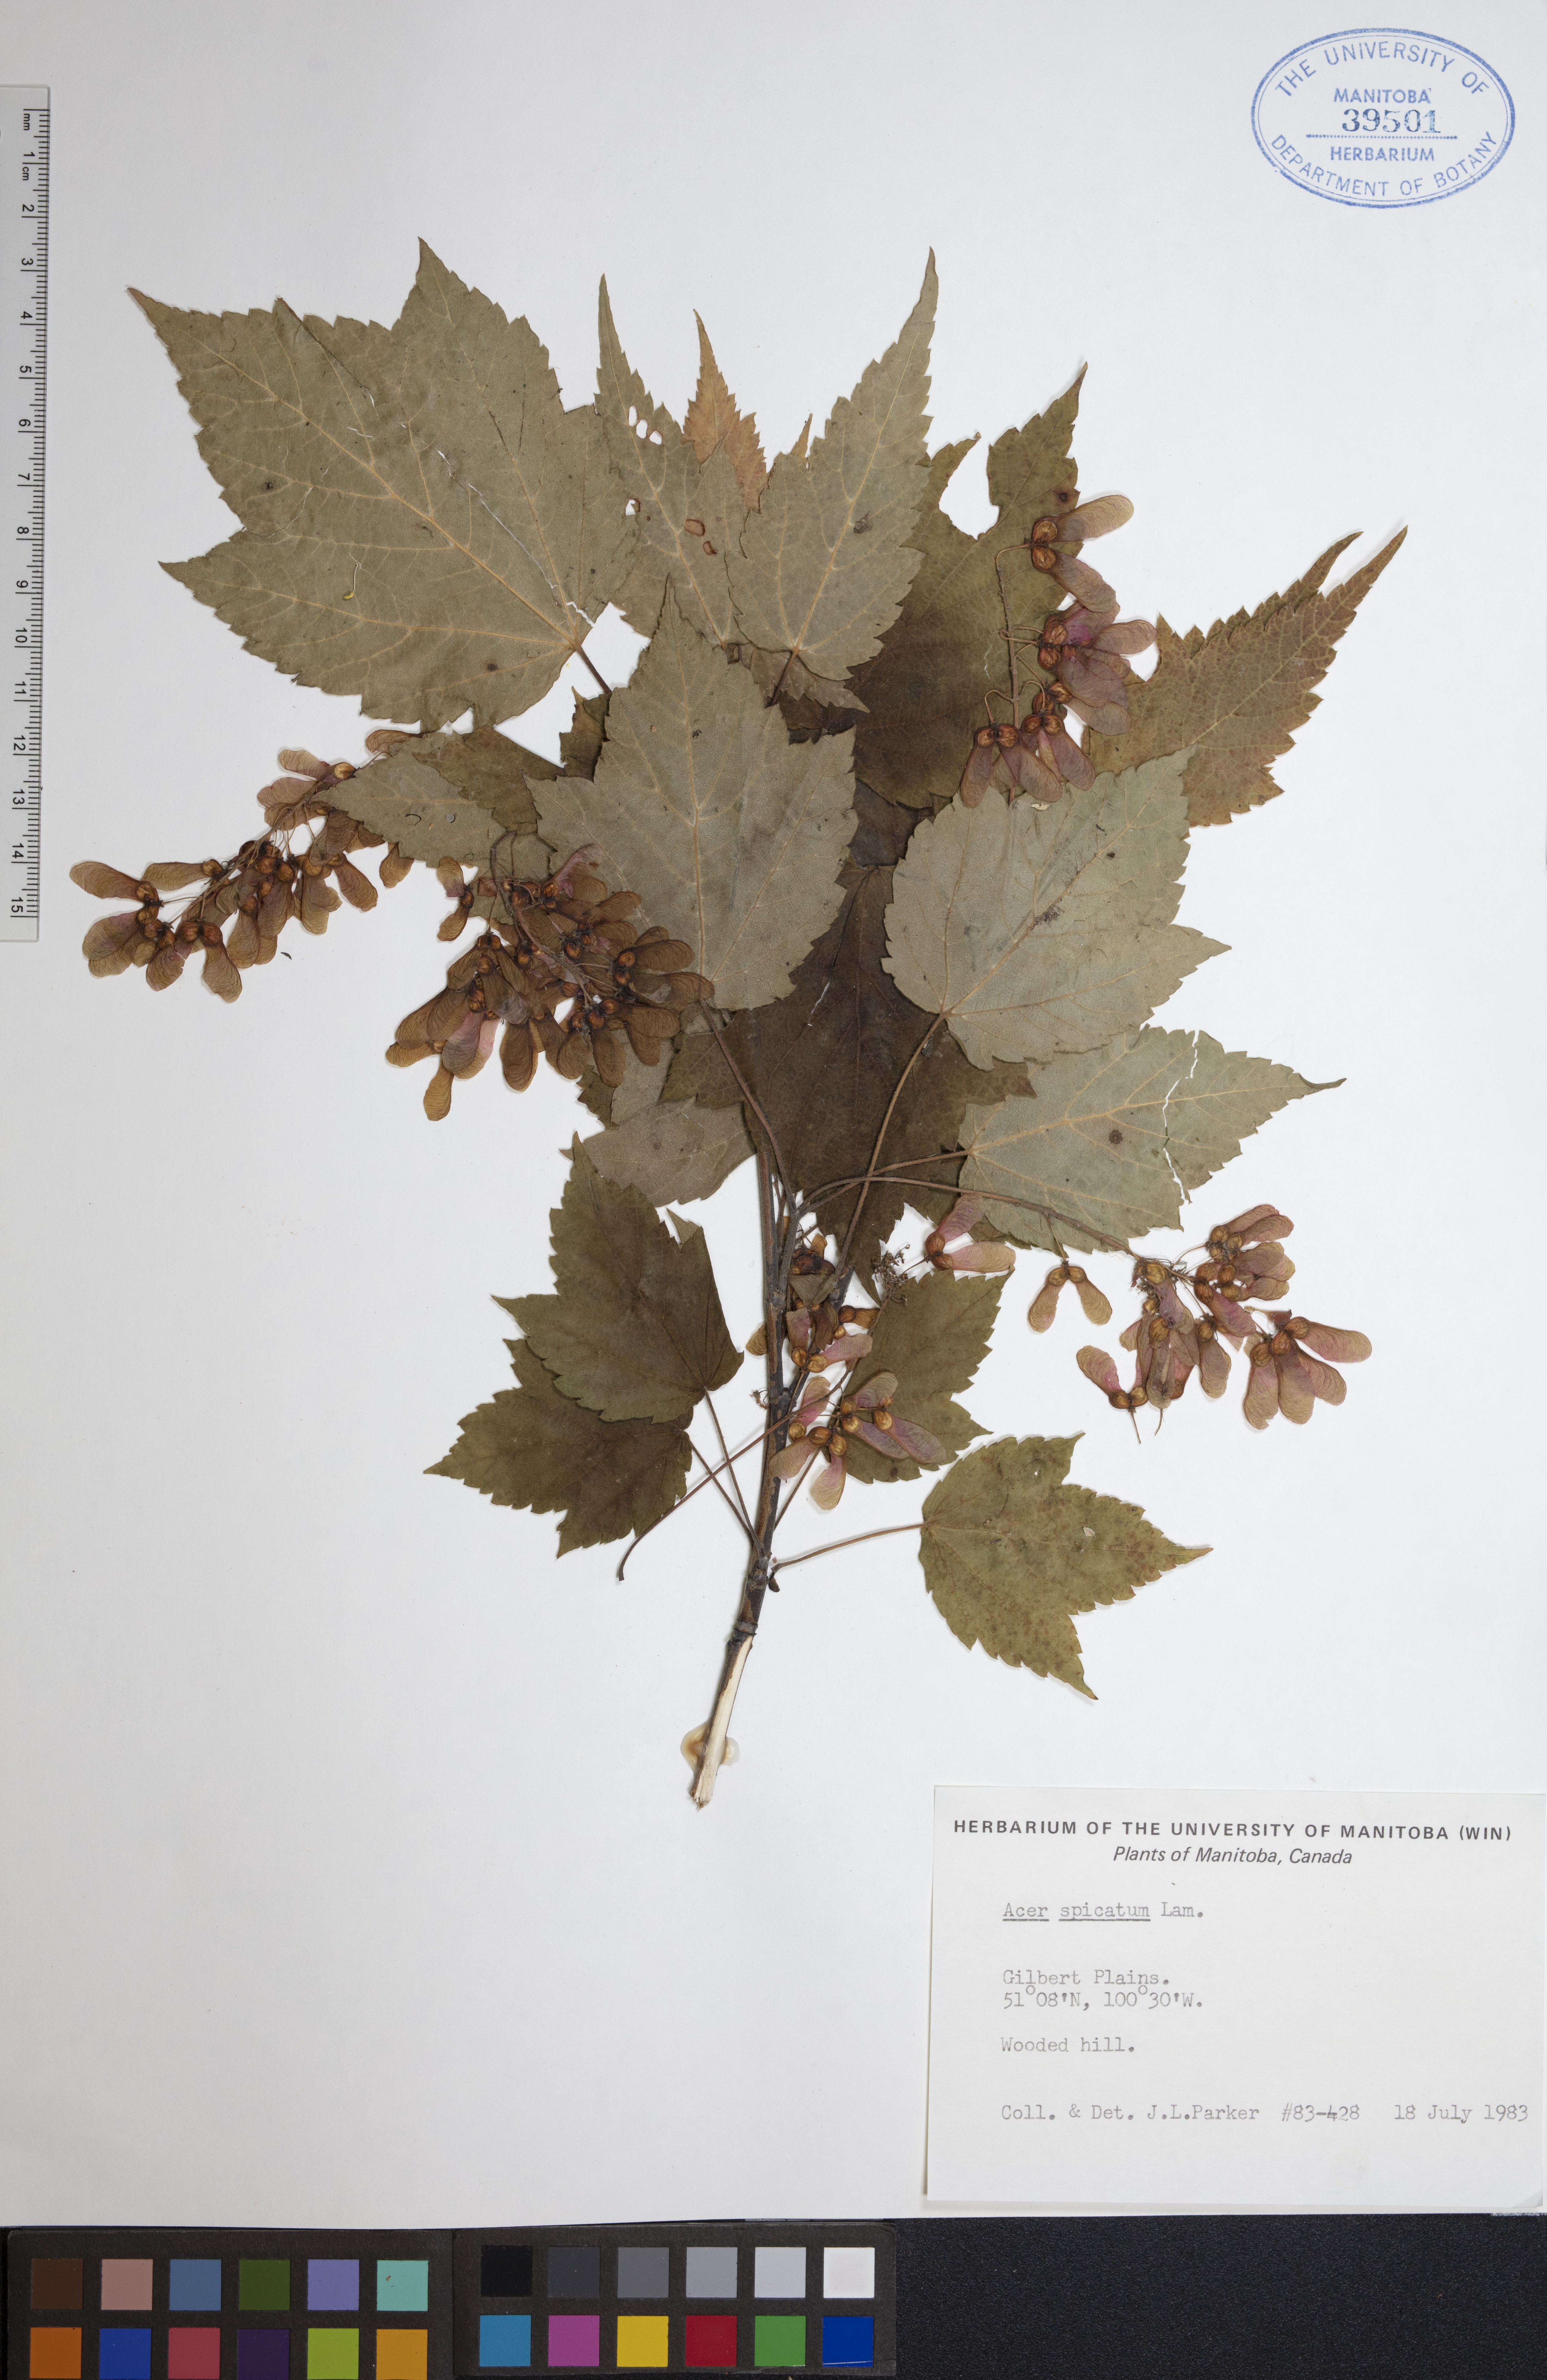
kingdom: Plantae
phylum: Tracheophyta
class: Magnoliopsida
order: Sapindales
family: Sapindaceae
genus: Acer
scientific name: Acer spicatum
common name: Mountain maple
